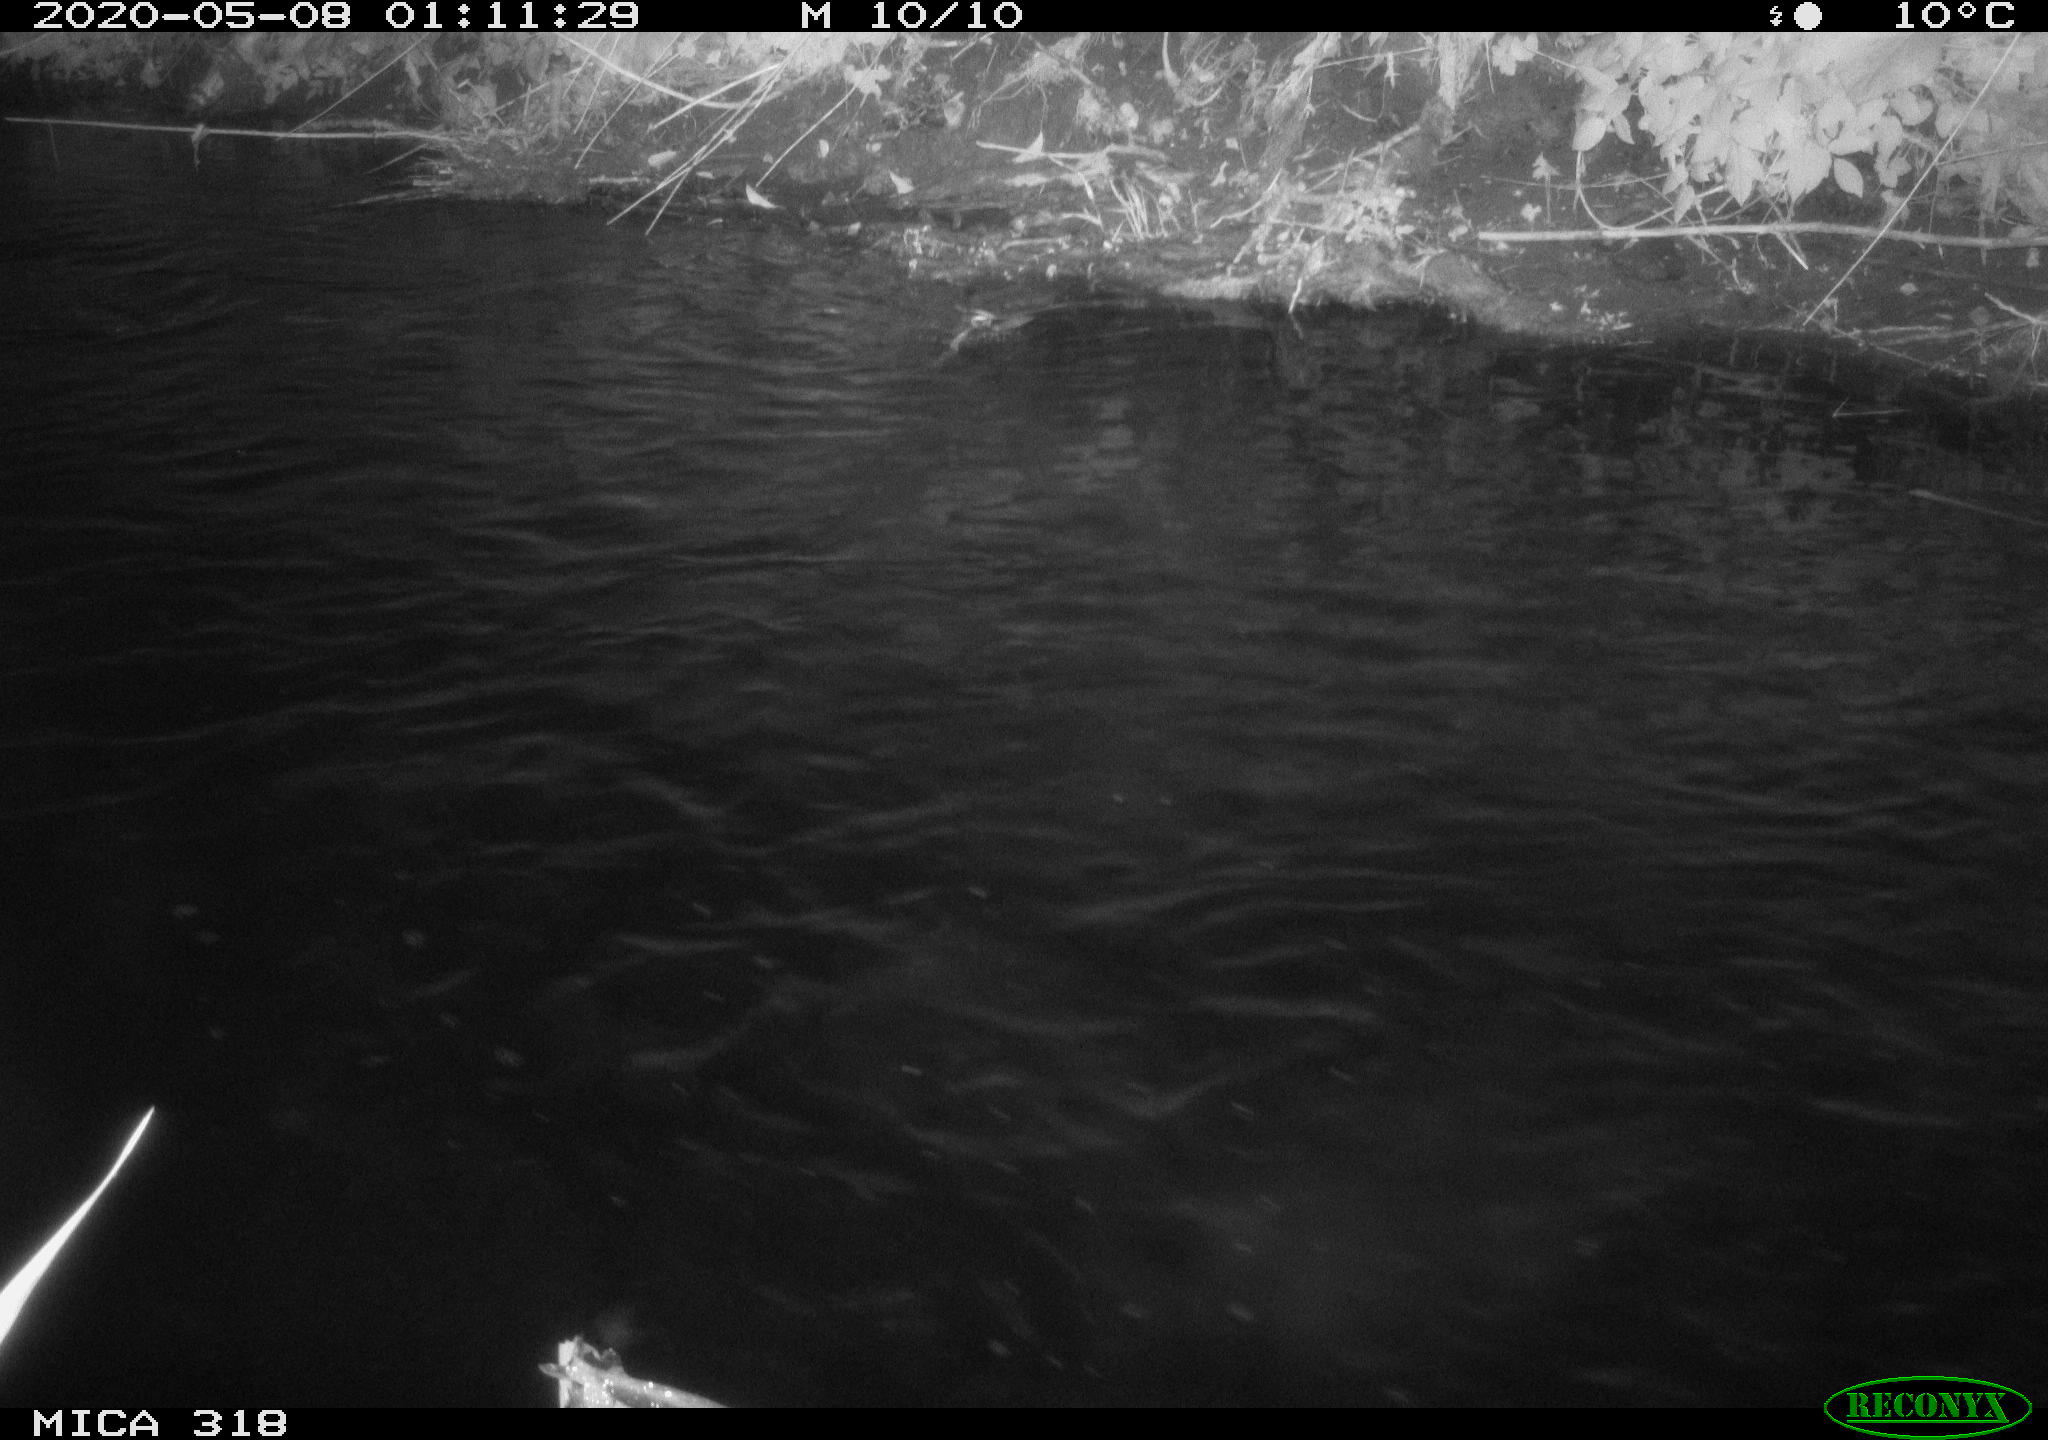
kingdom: Animalia
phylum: Chordata
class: Aves
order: Anseriformes
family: Anatidae
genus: Anas
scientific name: Anas platyrhynchos
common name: Mallard
